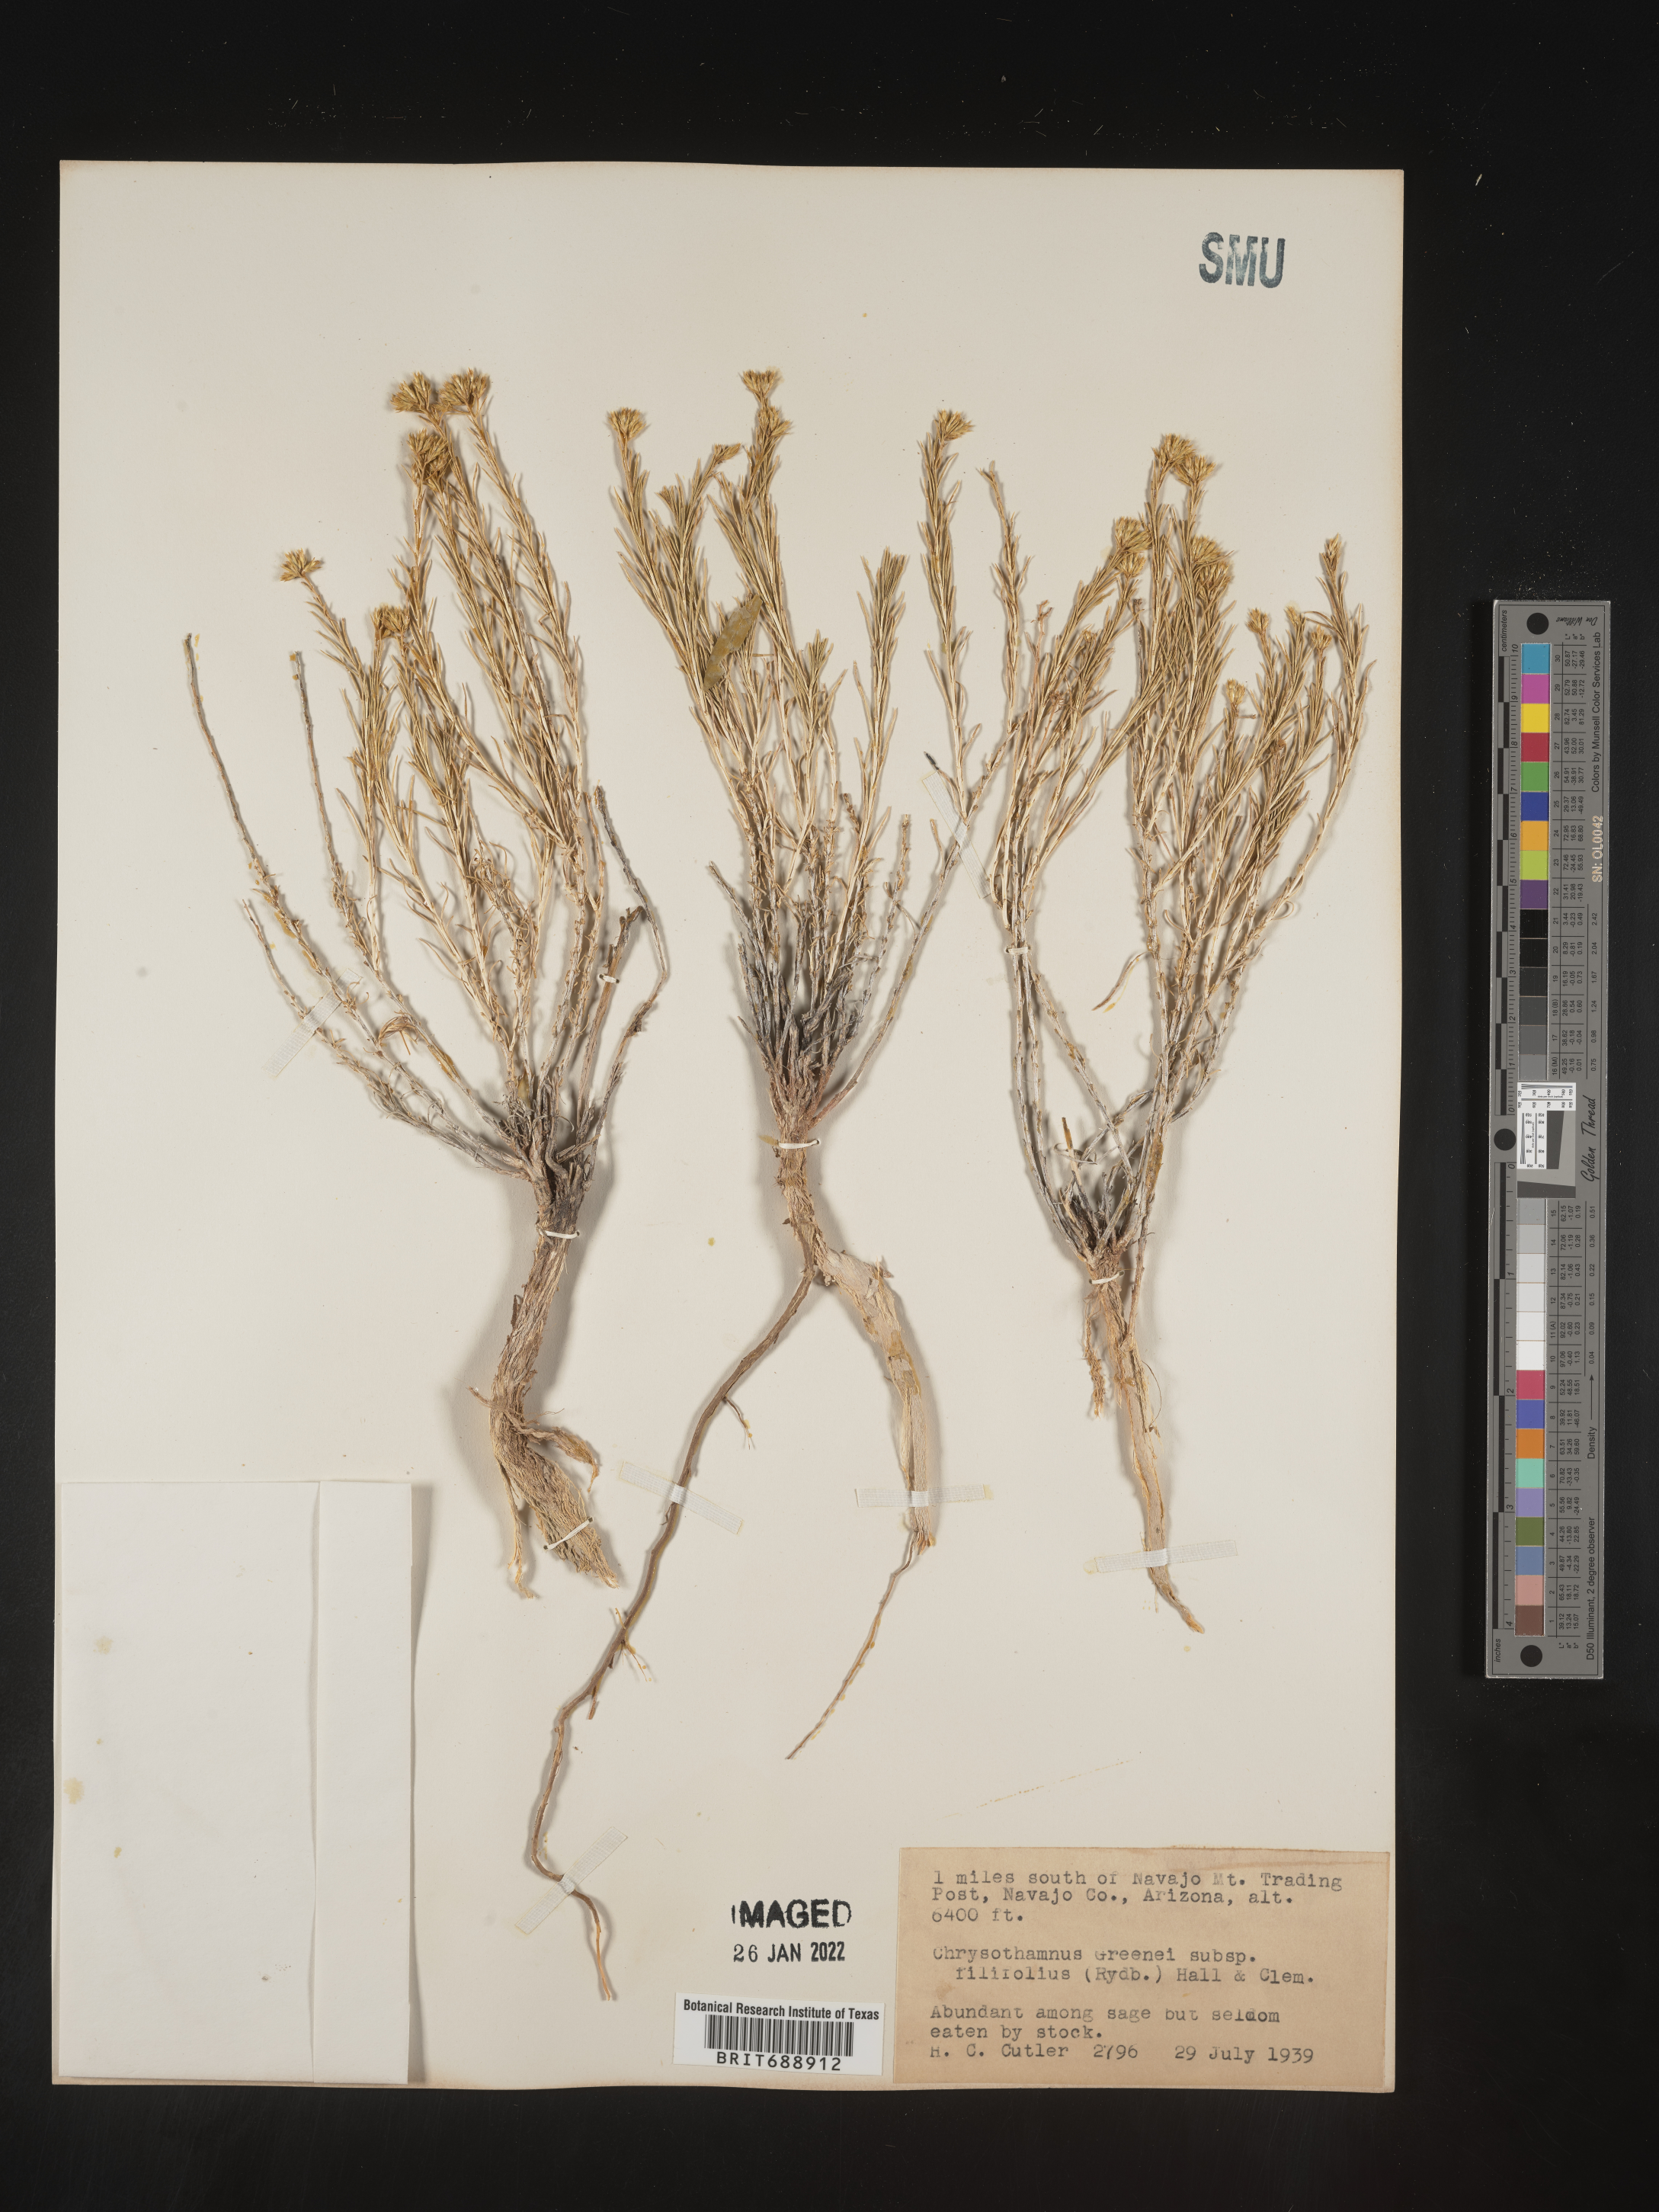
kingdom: Plantae
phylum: Tracheophyta
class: Magnoliopsida
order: Asterales
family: Asteraceae
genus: Chrysothamnus
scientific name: Chrysothamnus greenei
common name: Greene's rabbitbrush
